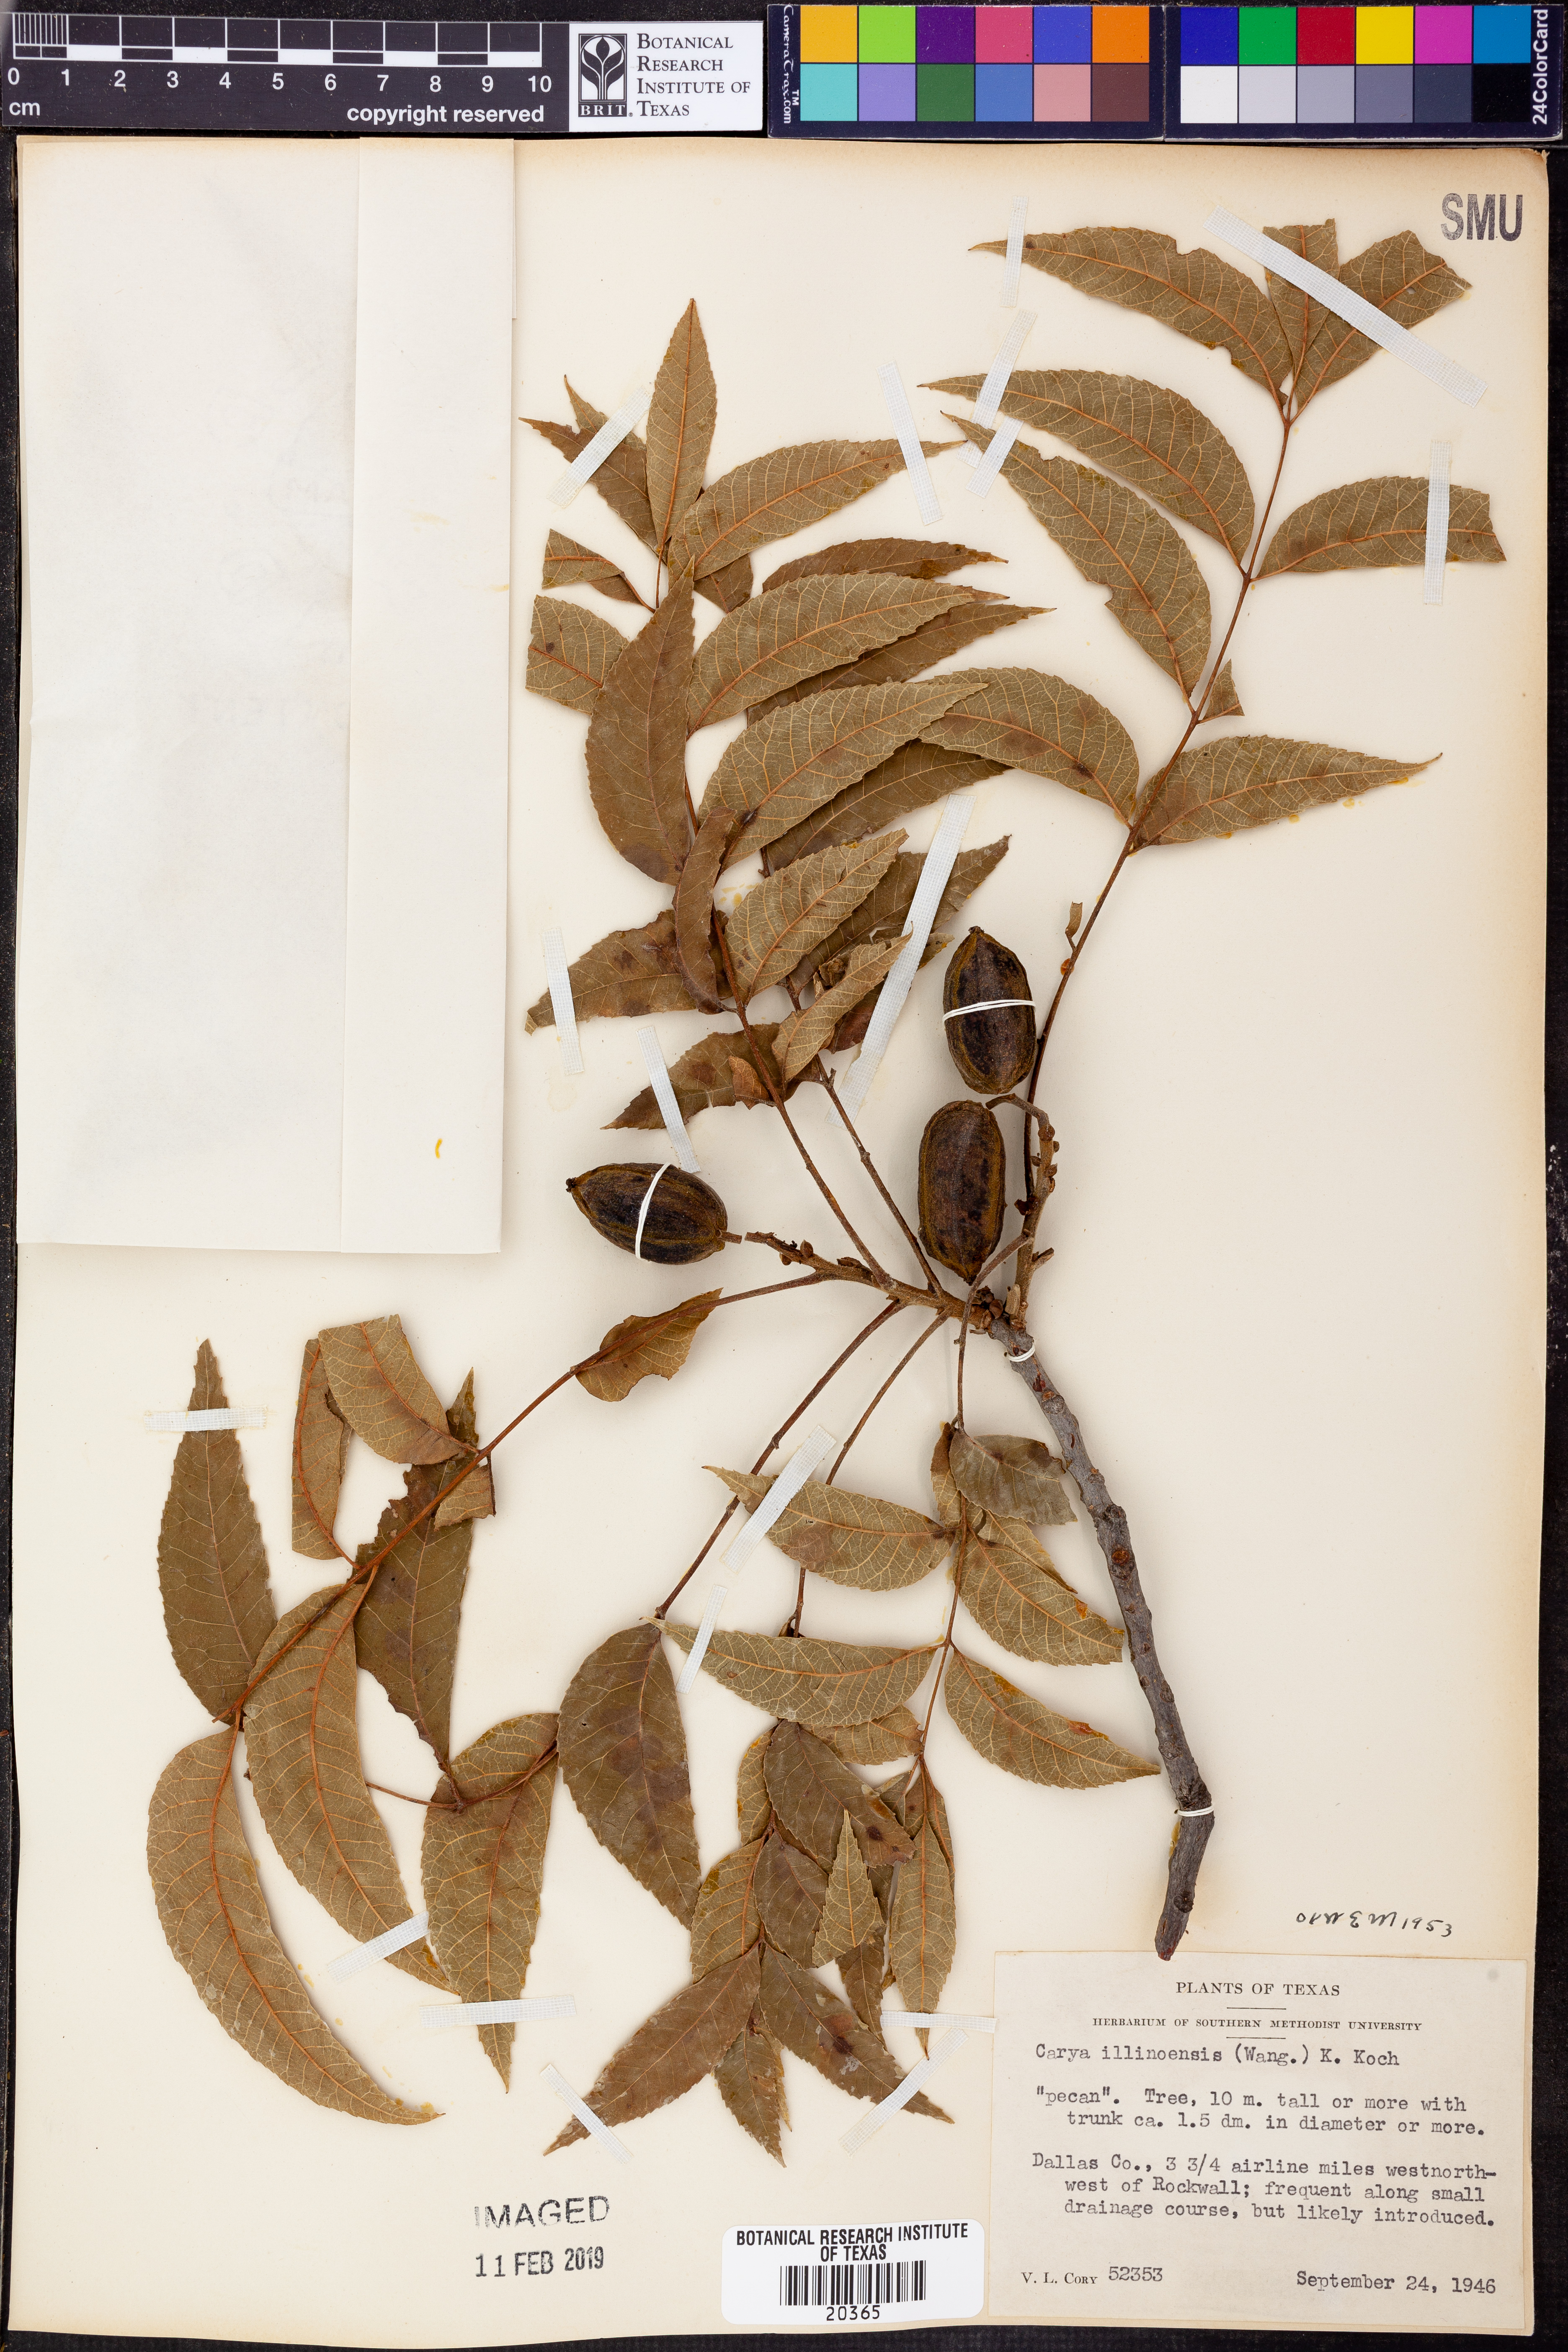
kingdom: Plantae
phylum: Tracheophyta
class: Magnoliopsida
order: Fagales
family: Juglandaceae
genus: Carya
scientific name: Carya
